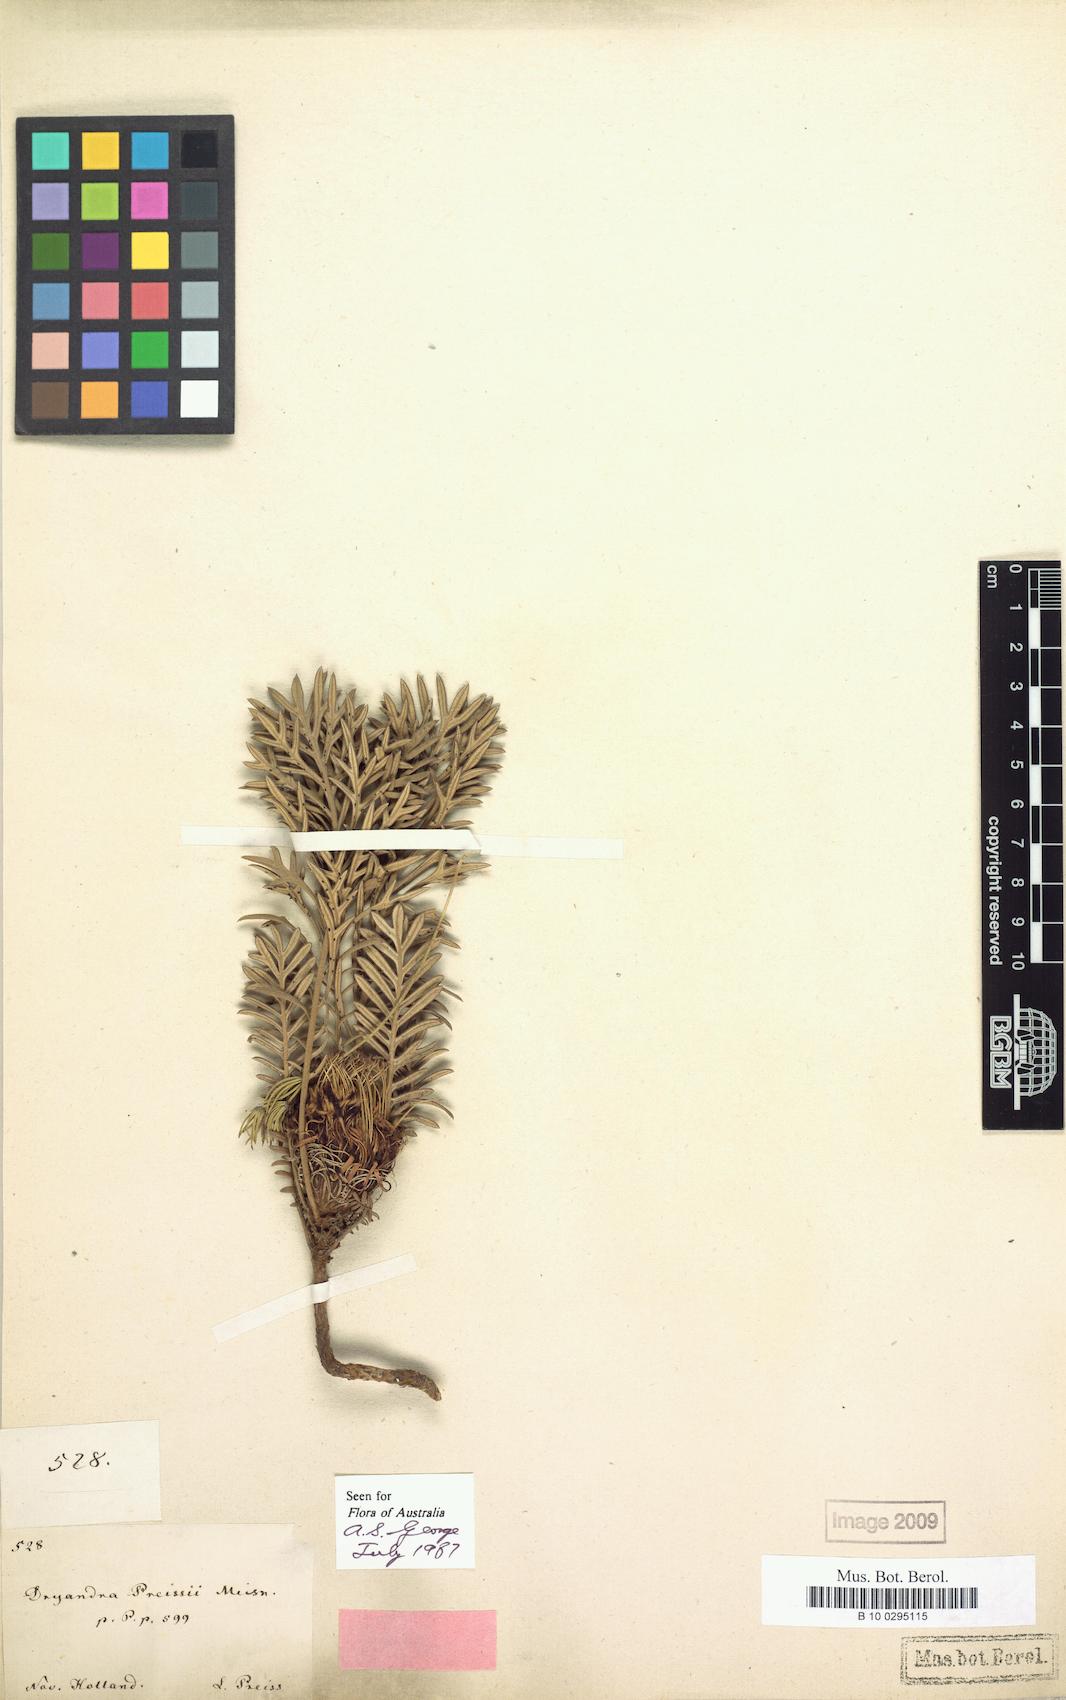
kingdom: Plantae
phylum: Tracheophyta
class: Magnoliopsida
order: Proteales
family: Proteaceae
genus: Banksia
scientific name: Banksia acuminata
